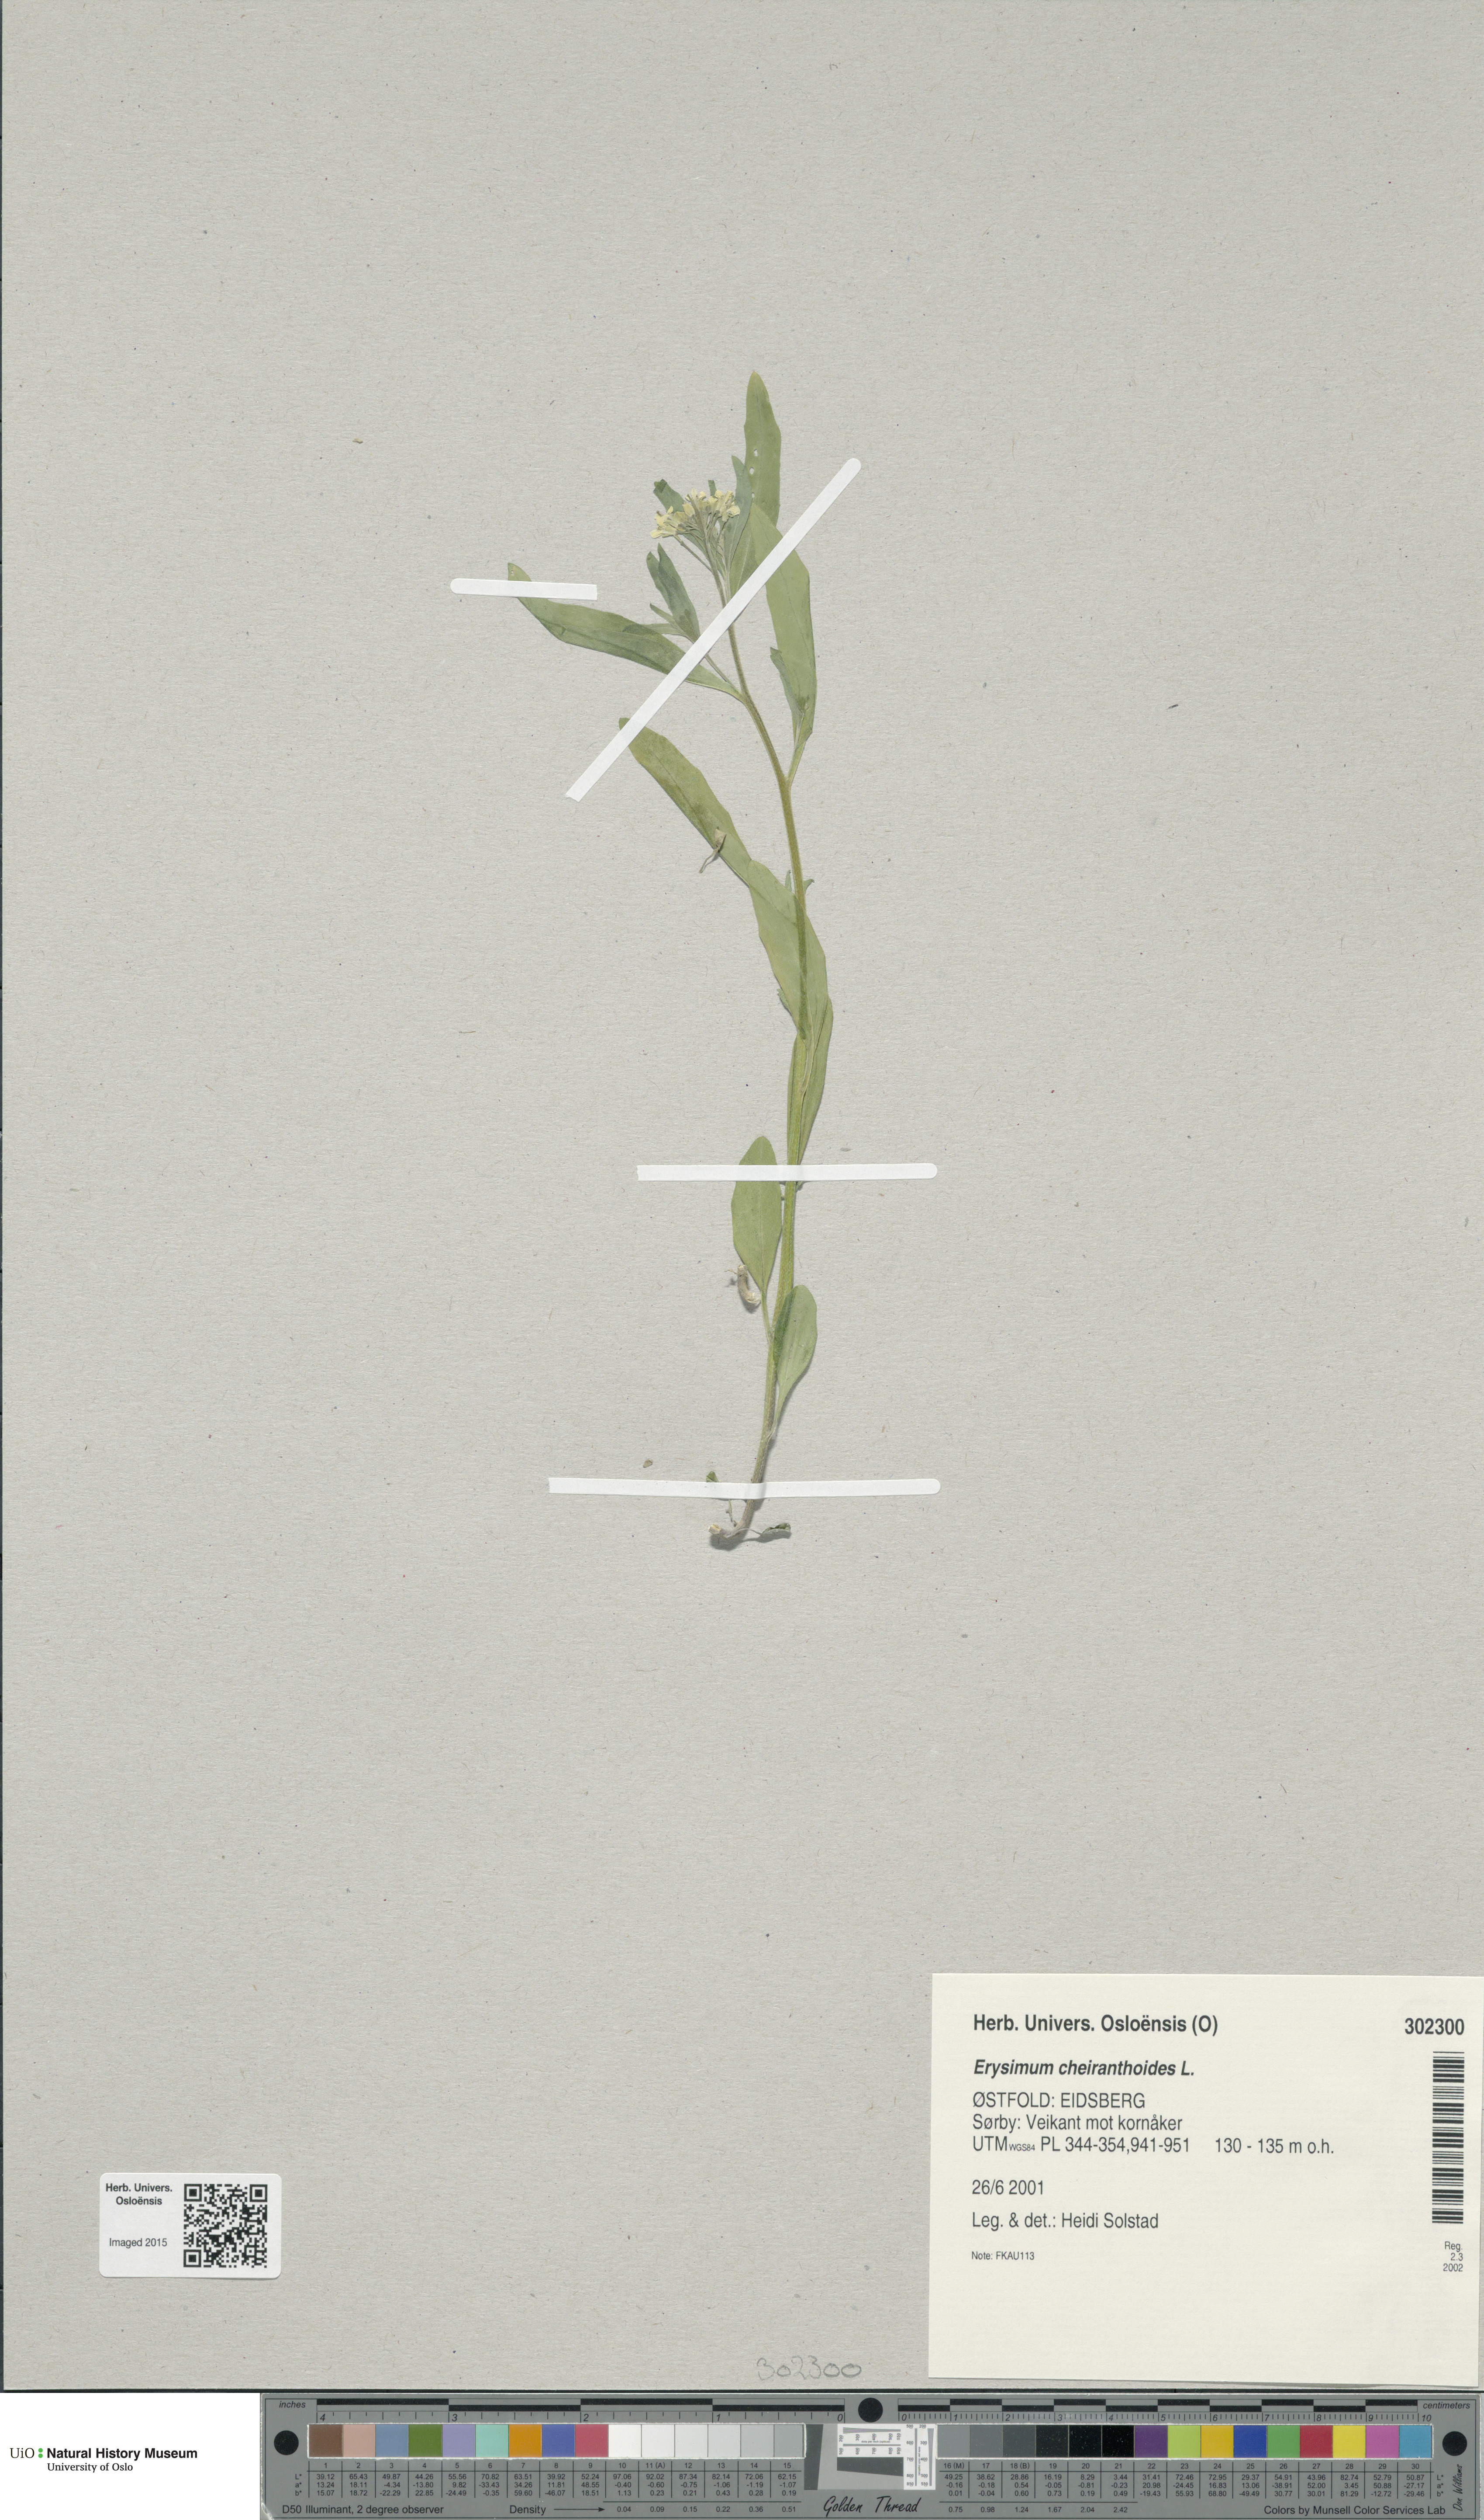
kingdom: Plantae
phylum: Tracheophyta
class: Magnoliopsida
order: Brassicales
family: Brassicaceae
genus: Erysimum
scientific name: Erysimum cheiranthoides
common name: Treacle mustard
